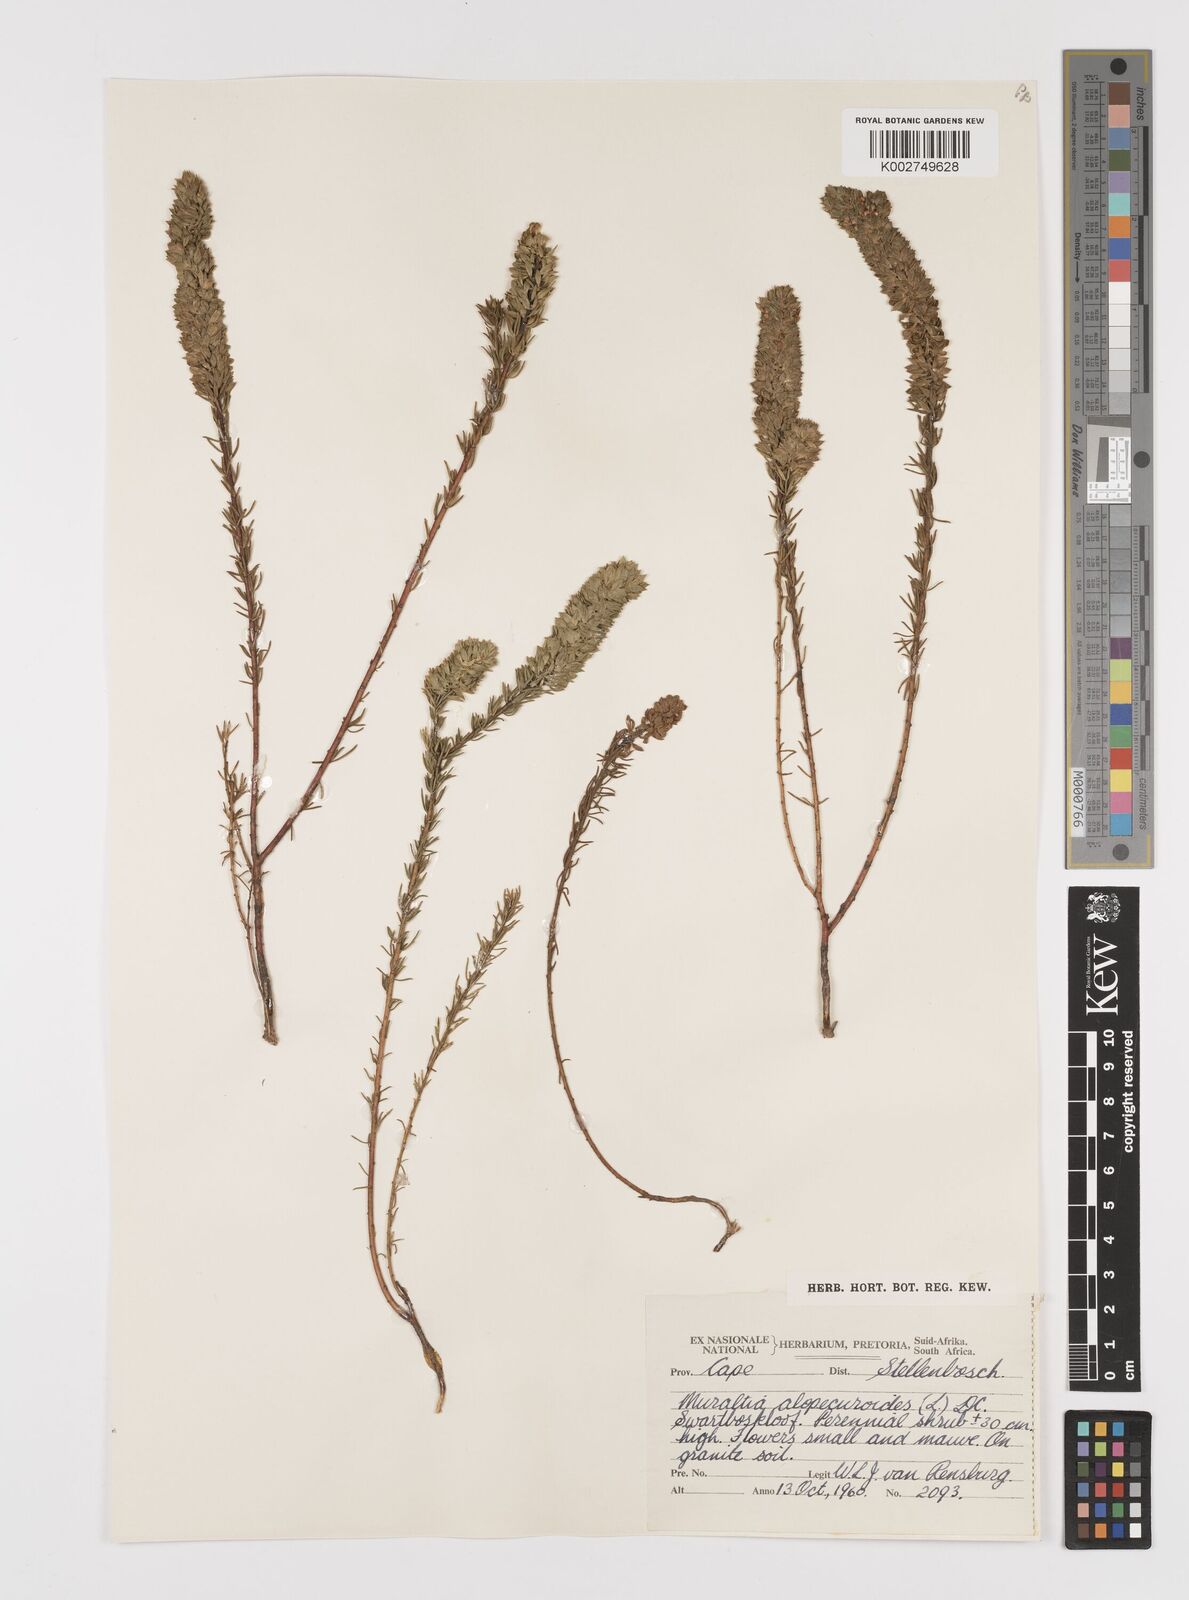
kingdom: Plantae
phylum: Tracheophyta
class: Magnoliopsida
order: Fabales
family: Polygalaceae
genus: Muraltia
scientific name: Muraltia alopecuroides
